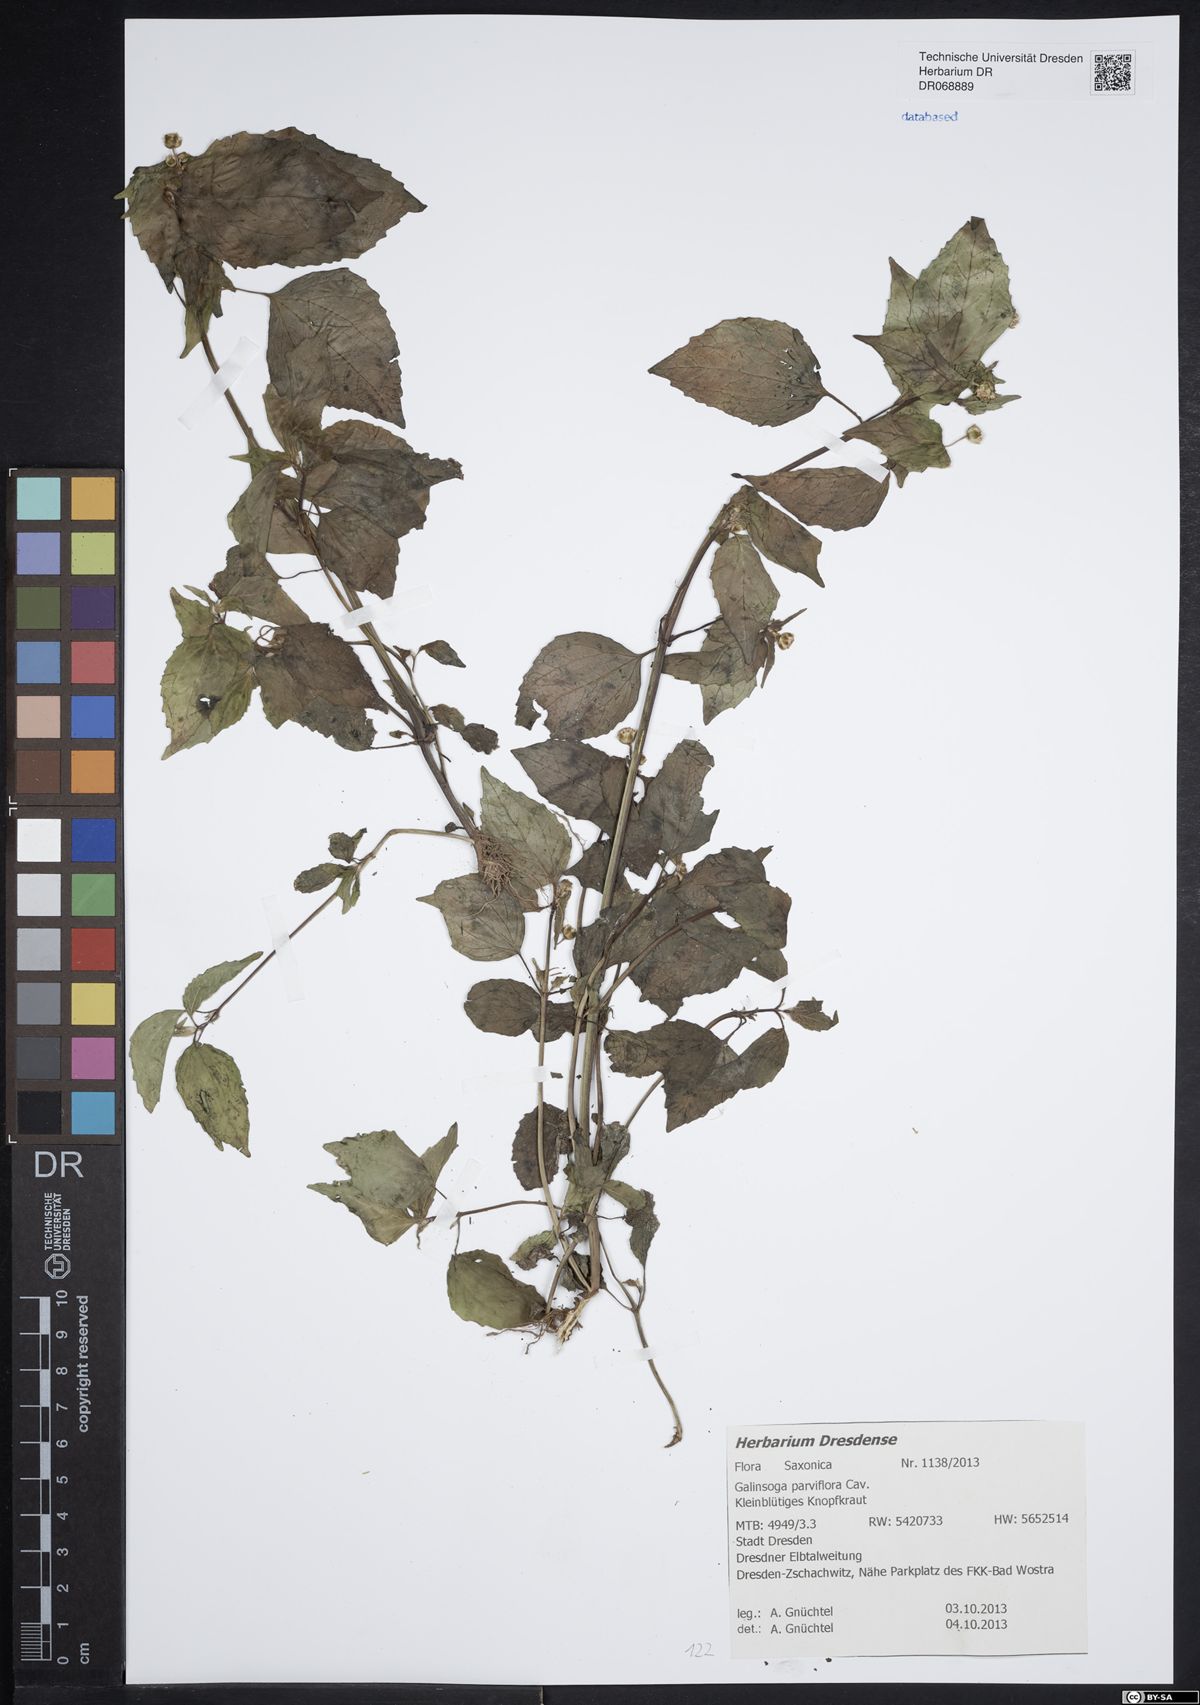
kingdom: Plantae
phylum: Tracheophyta
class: Magnoliopsida
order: Asterales
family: Asteraceae
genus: Galinsoga
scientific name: Galinsoga parviflora
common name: Gallant soldier
